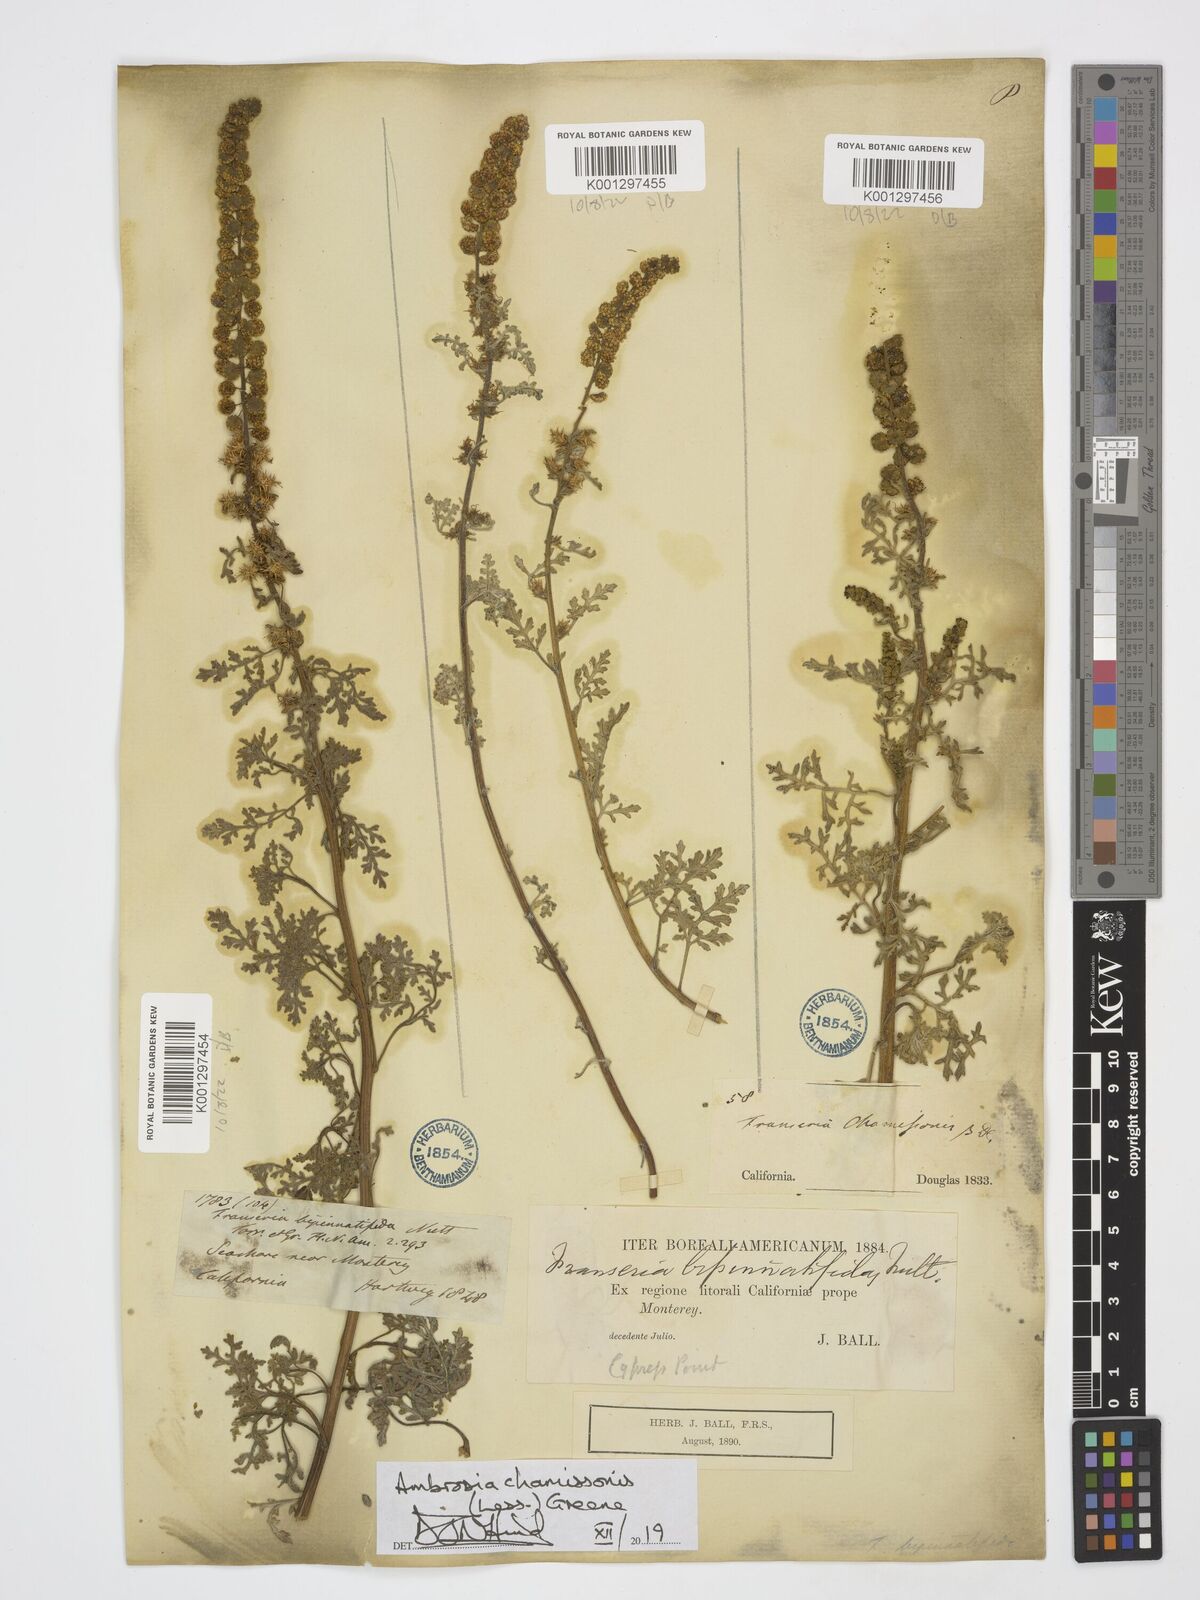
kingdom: Plantae
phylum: Tracheophyta
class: Magnoliopsida
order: Asterales
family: Asteraceae
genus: Ambrosia
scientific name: Ambrosia chamissonis
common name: Beachbur
